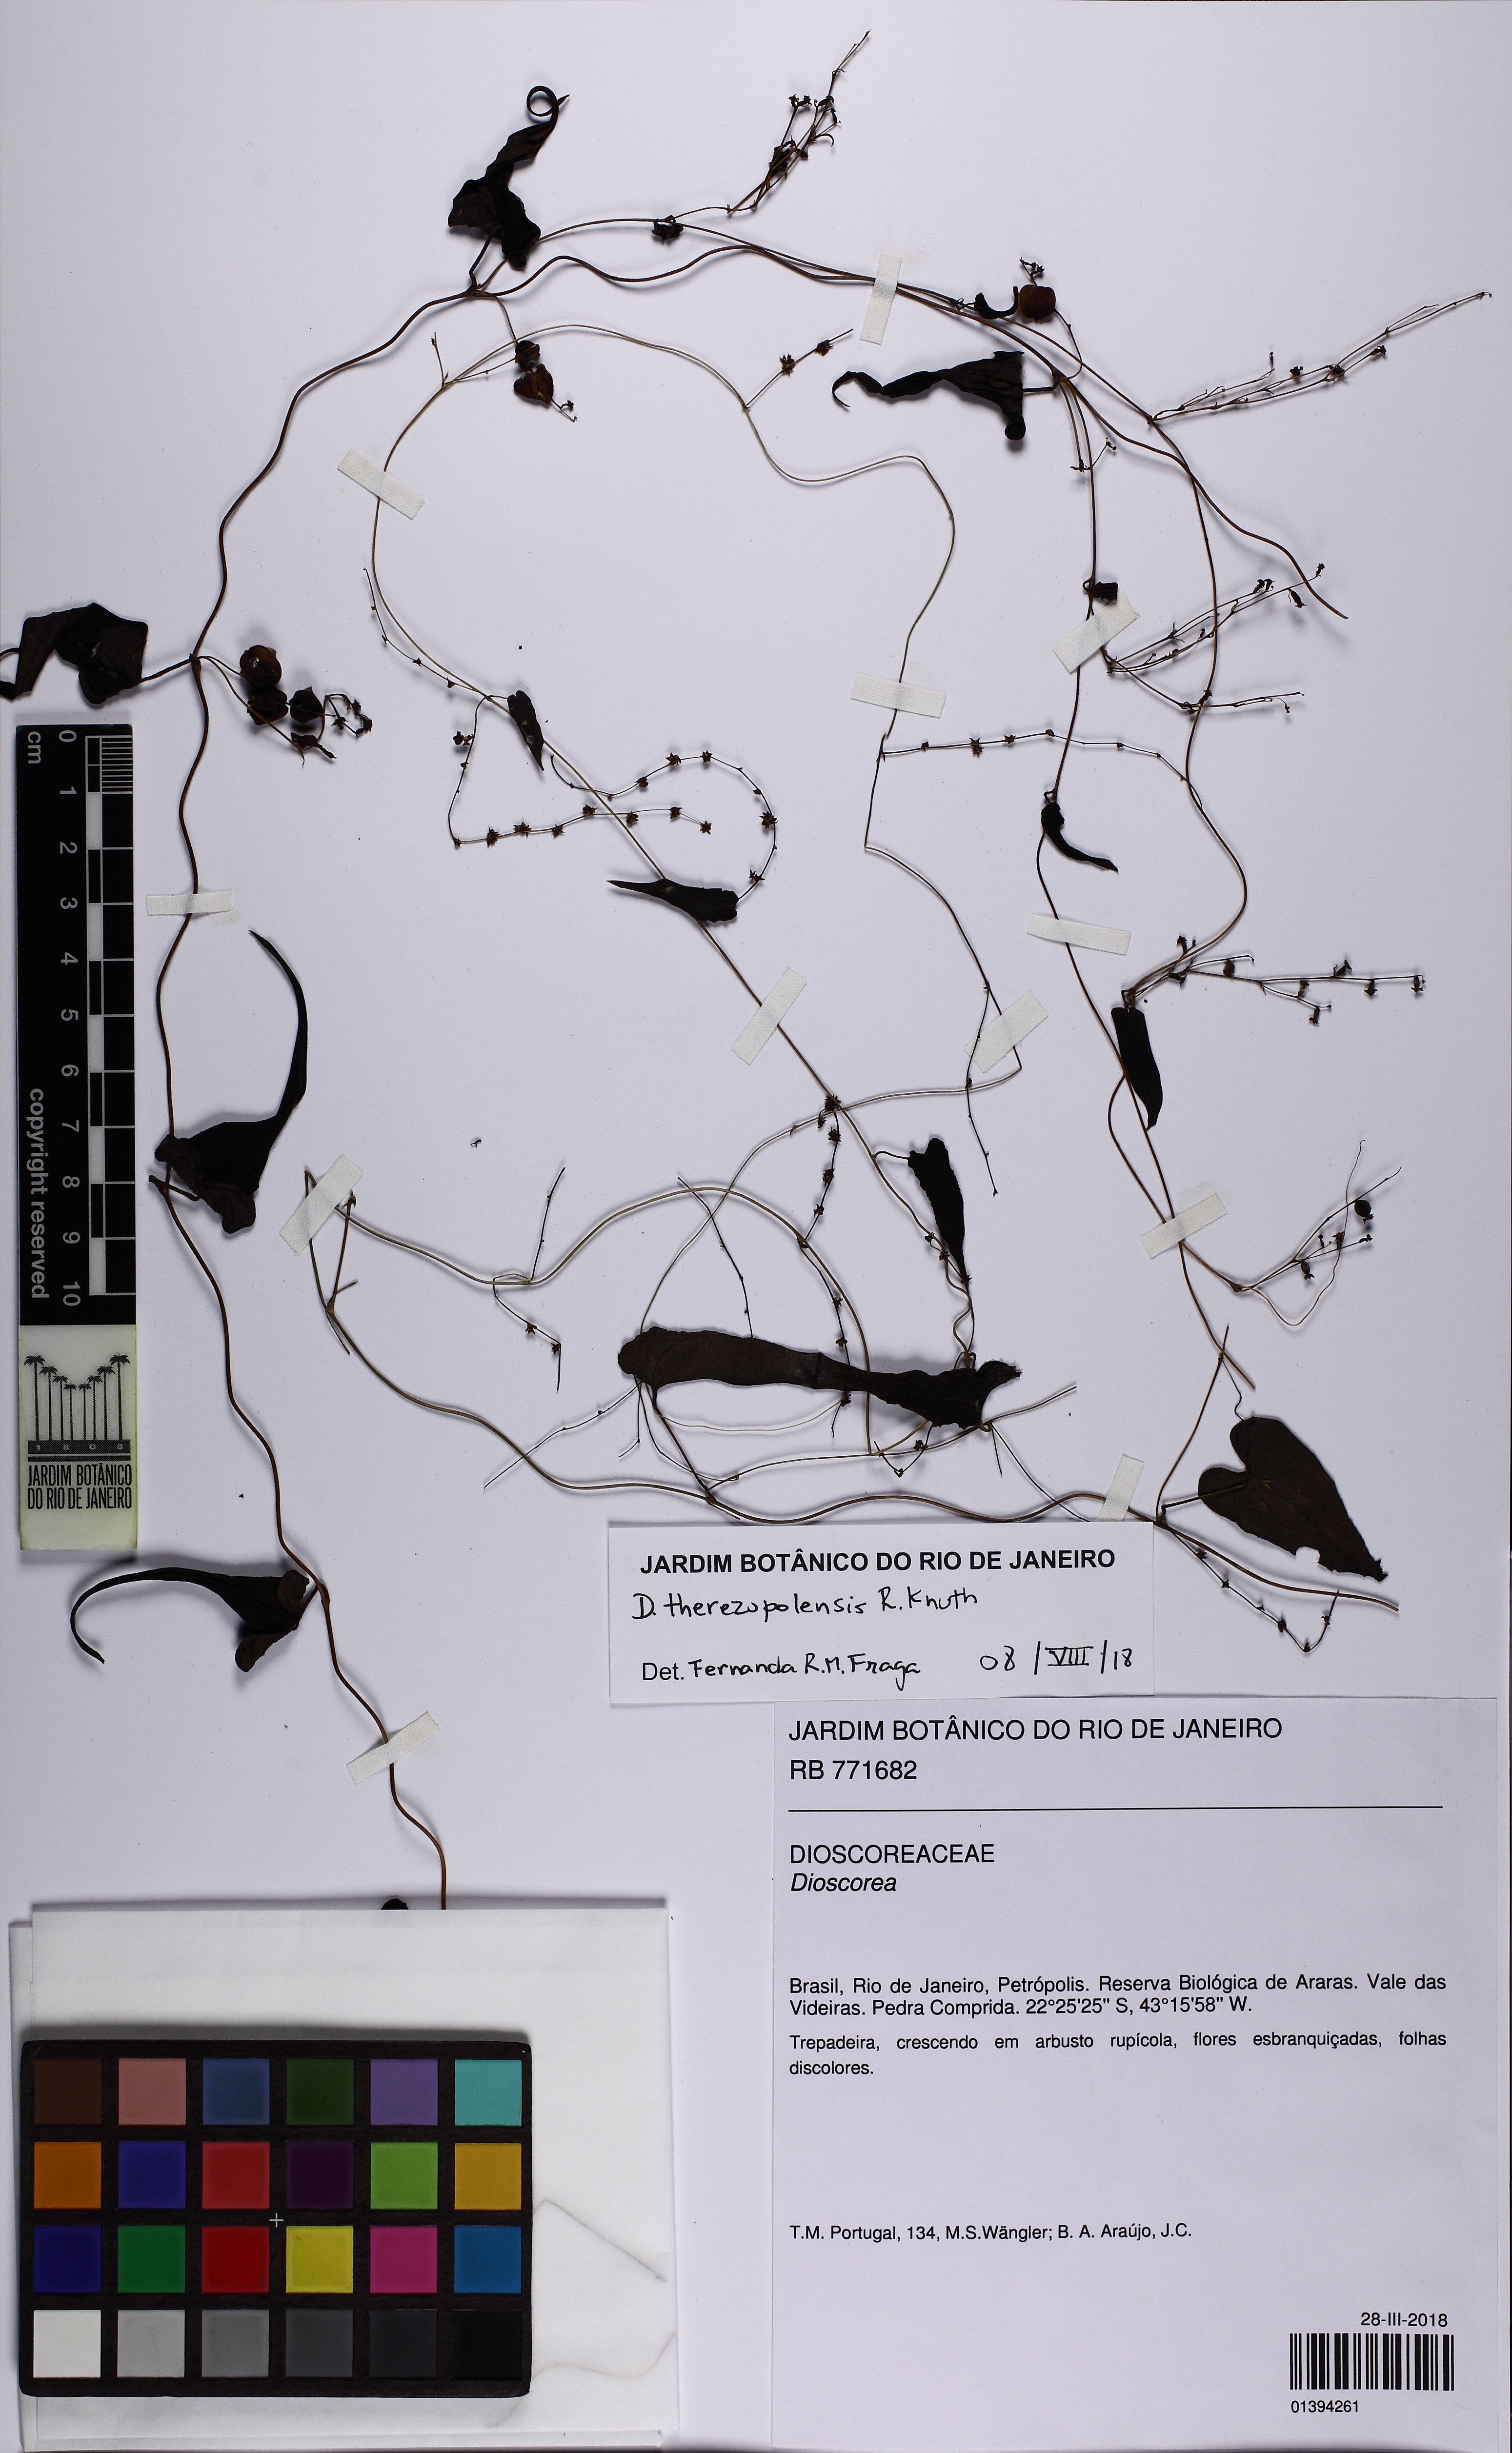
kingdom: Plantae
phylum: Tracheophyta
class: Liliopsida
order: Dioscoreales
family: Dioscoreaceae
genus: Dioscorea
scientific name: Dioscorea therezopolensis
